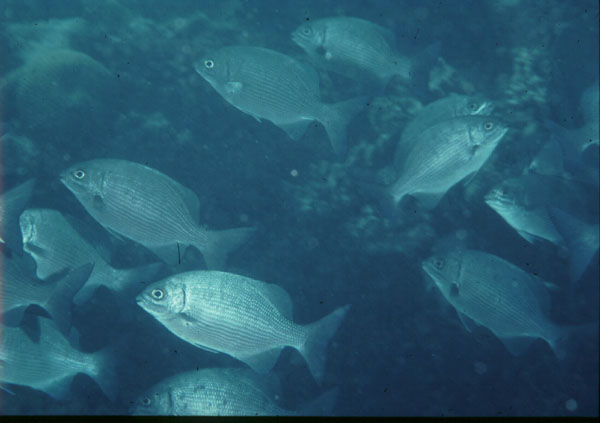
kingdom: Animalia
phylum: Chordata
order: Perciformes
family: Kyphosidae
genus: Kyphosus
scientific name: Kyphosus cinerascens
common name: Topsail drummer
